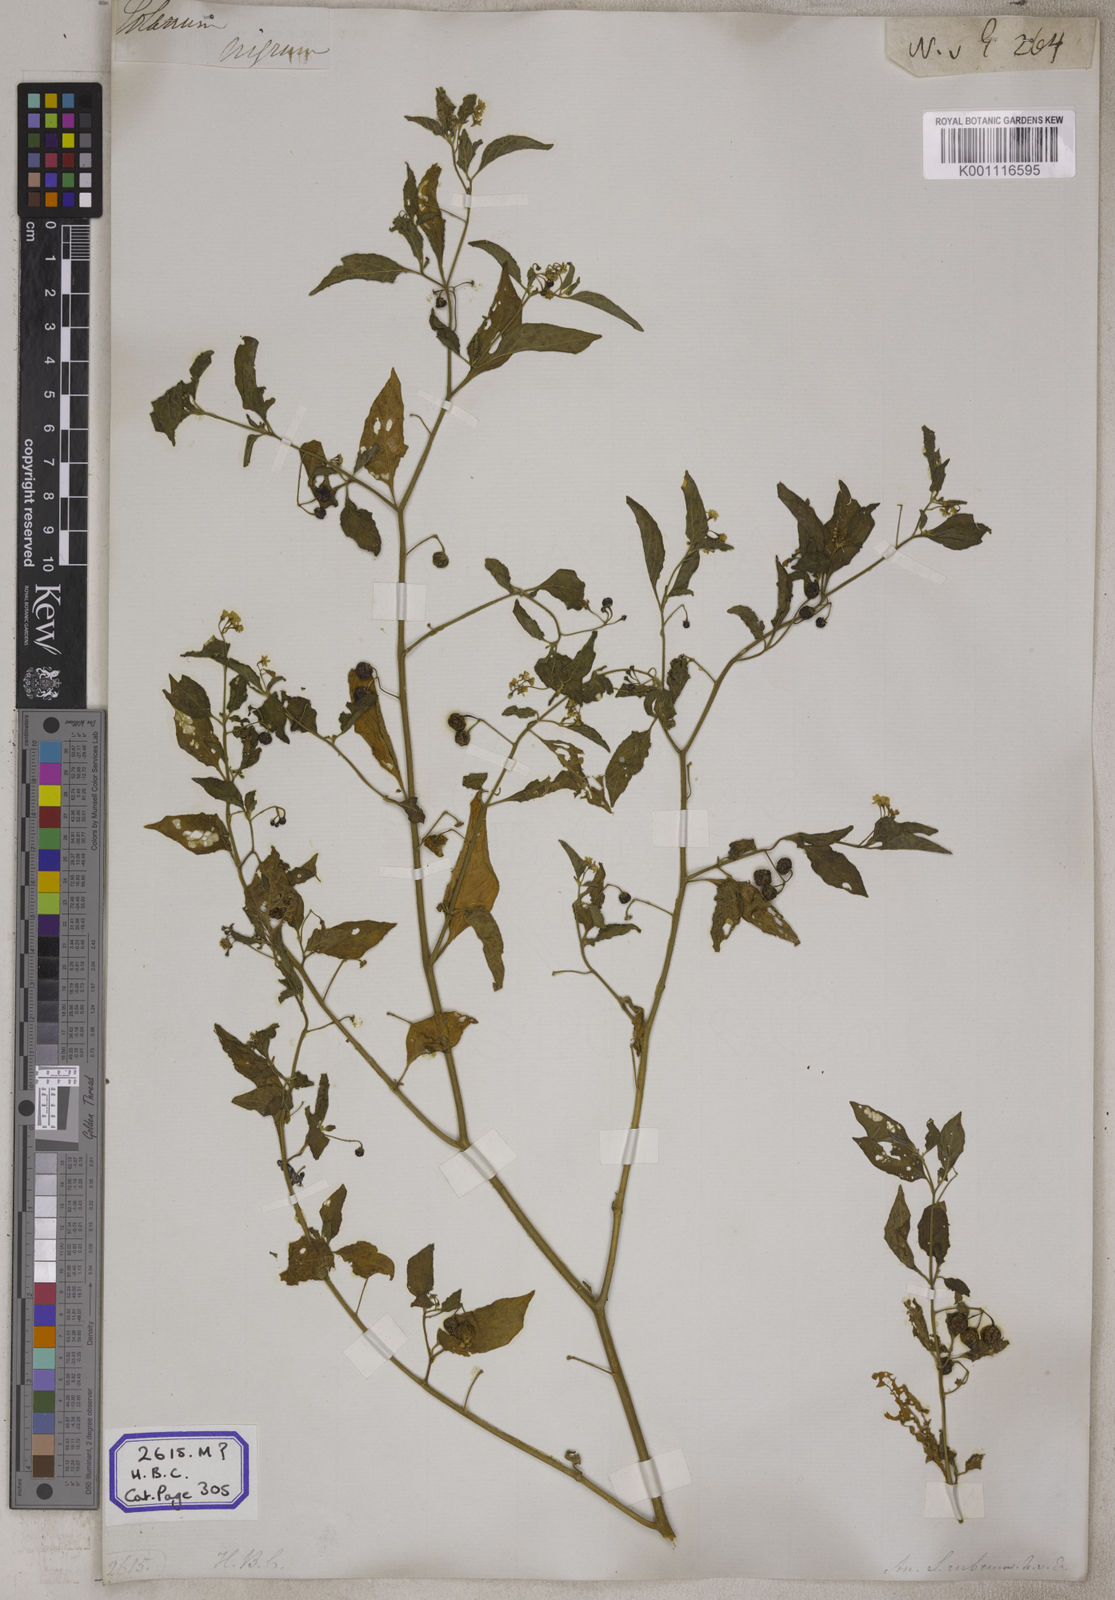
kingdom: Plantae
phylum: Tracheophyta
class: Magnoliopsida
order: Solanales
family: Solanaceae
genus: Solanum
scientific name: Solanum nigrum
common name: Black nightshade
